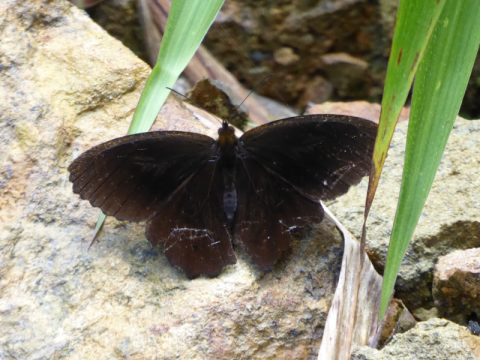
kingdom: Animalia
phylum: Arthropoda
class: Insecta
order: Lepidoptera
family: Hesperiidae
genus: Aethilla
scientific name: Aethilla echina
